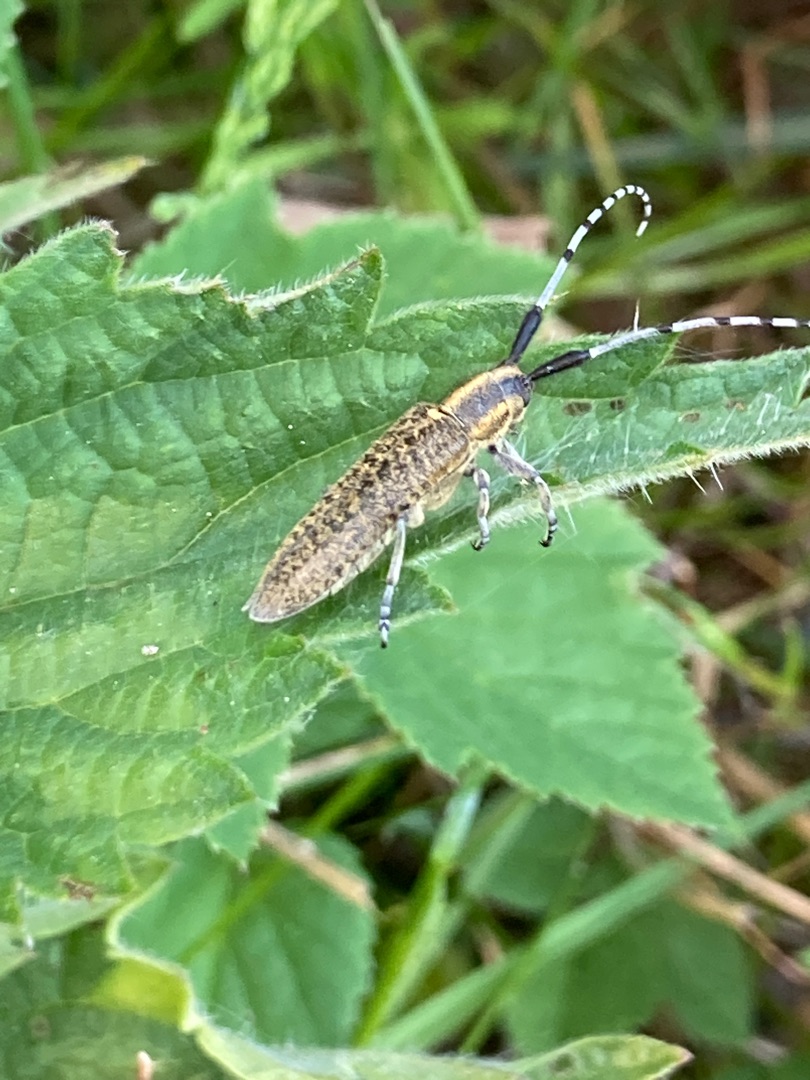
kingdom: Animalia
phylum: Arthropoda
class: Insecta
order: Coleoptera
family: Cerambycidae
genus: Agapanthia
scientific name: Agapanthia villosoviridescens
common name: Tidselbuk
